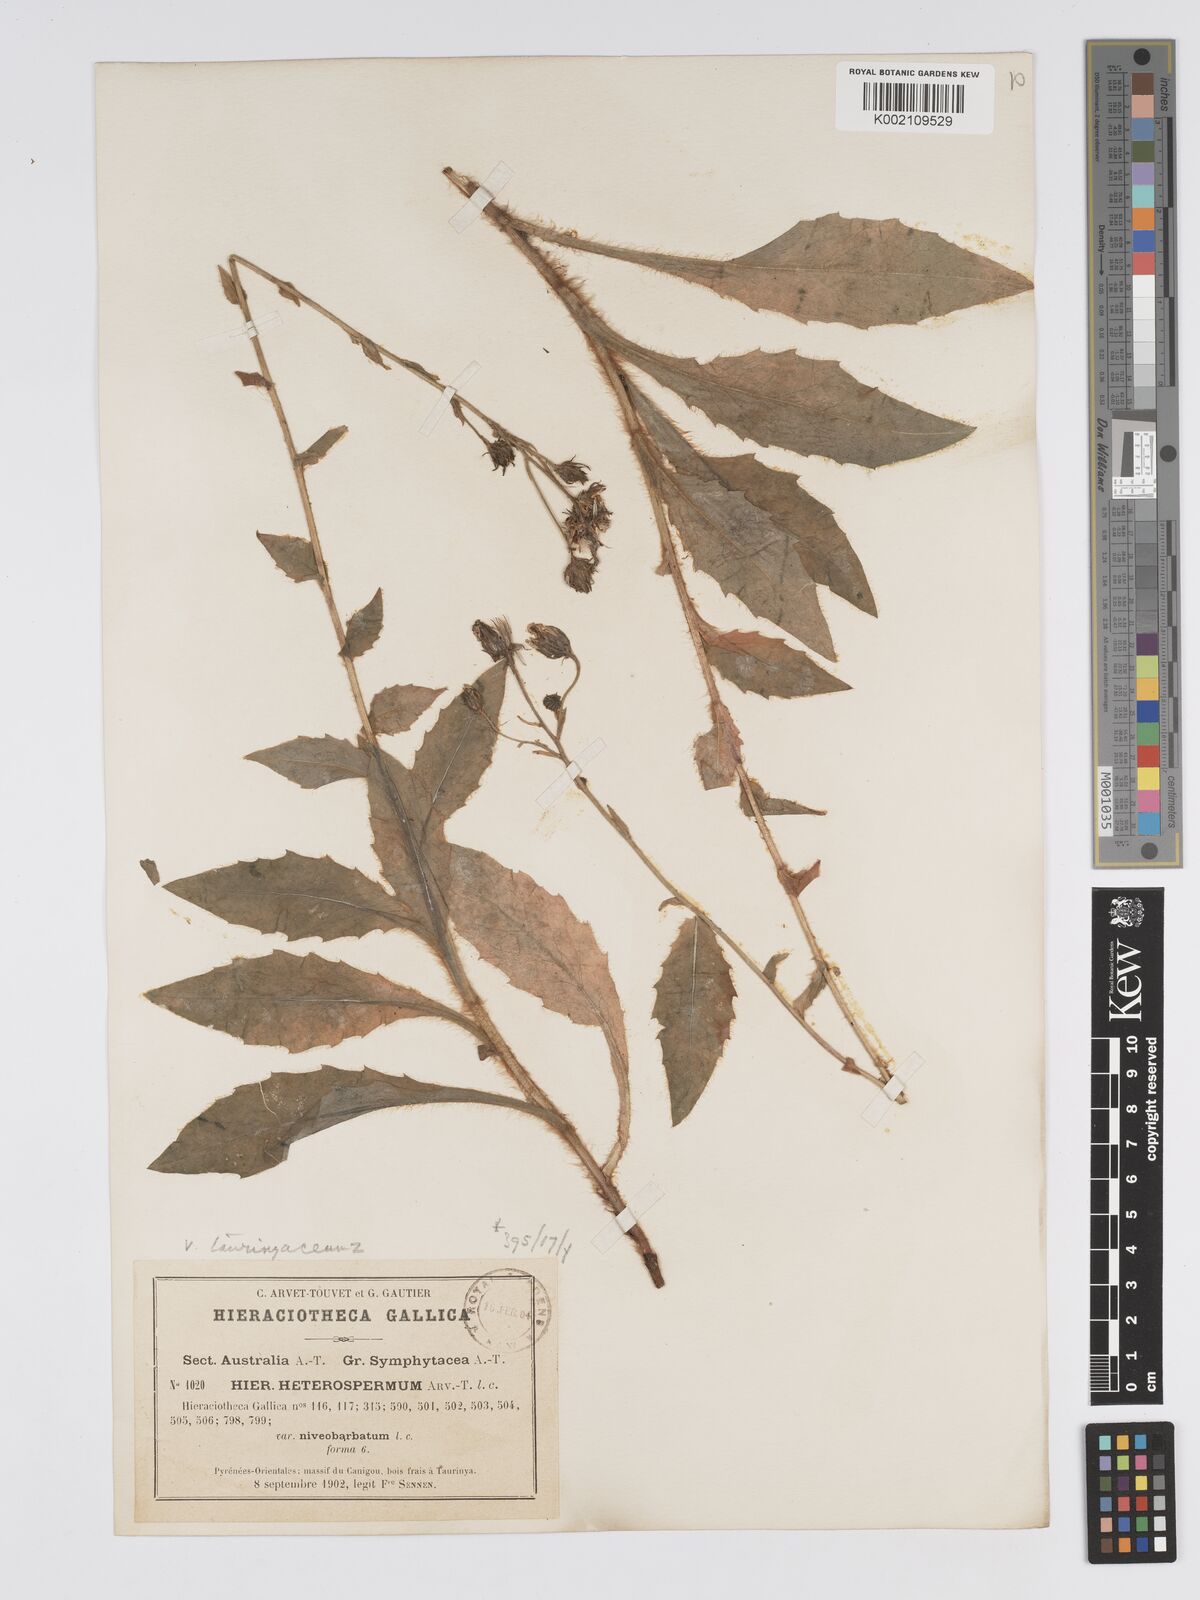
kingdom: Plantae
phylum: Tracheophyta
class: Magnoliopsida
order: Asterales
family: Asteraceae
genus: Hieracium
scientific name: Hieracium racemosum
